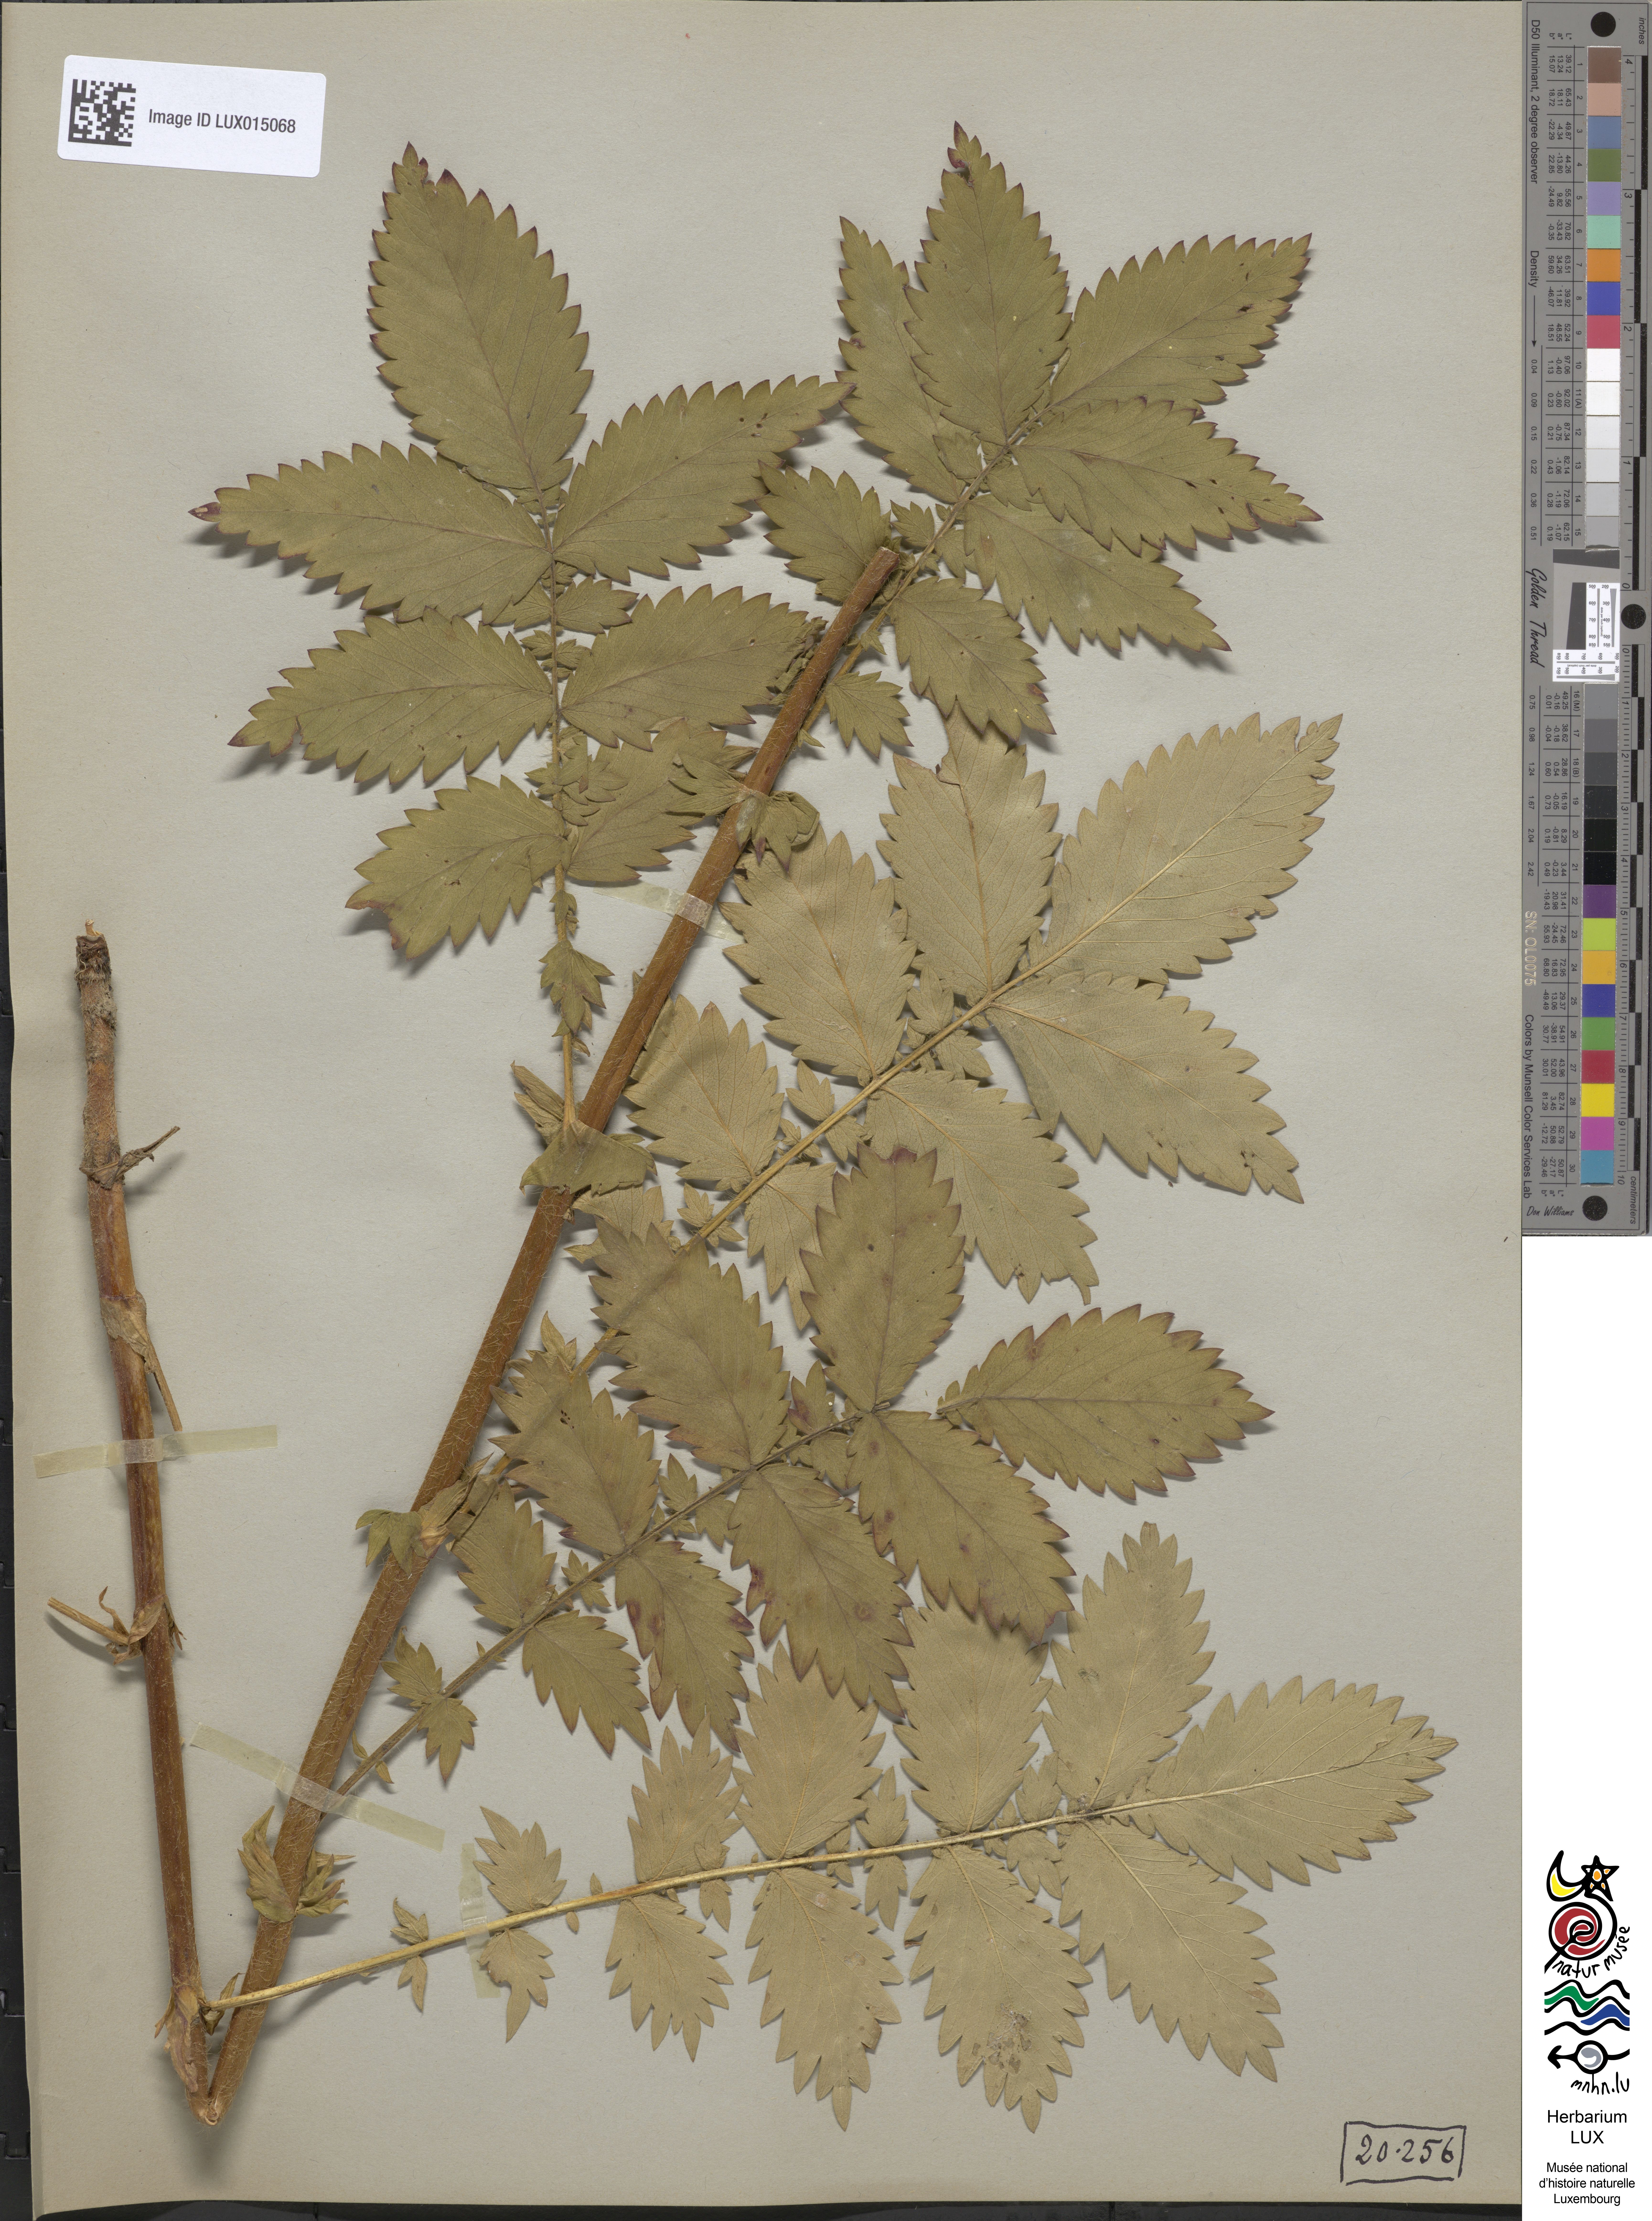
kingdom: Plantae
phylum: Tracheophyta
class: Magnoliopsida
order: Rosales
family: Rosaceae
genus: Agrimonia
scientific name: Agrimonia repens
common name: Creeping agrimony
